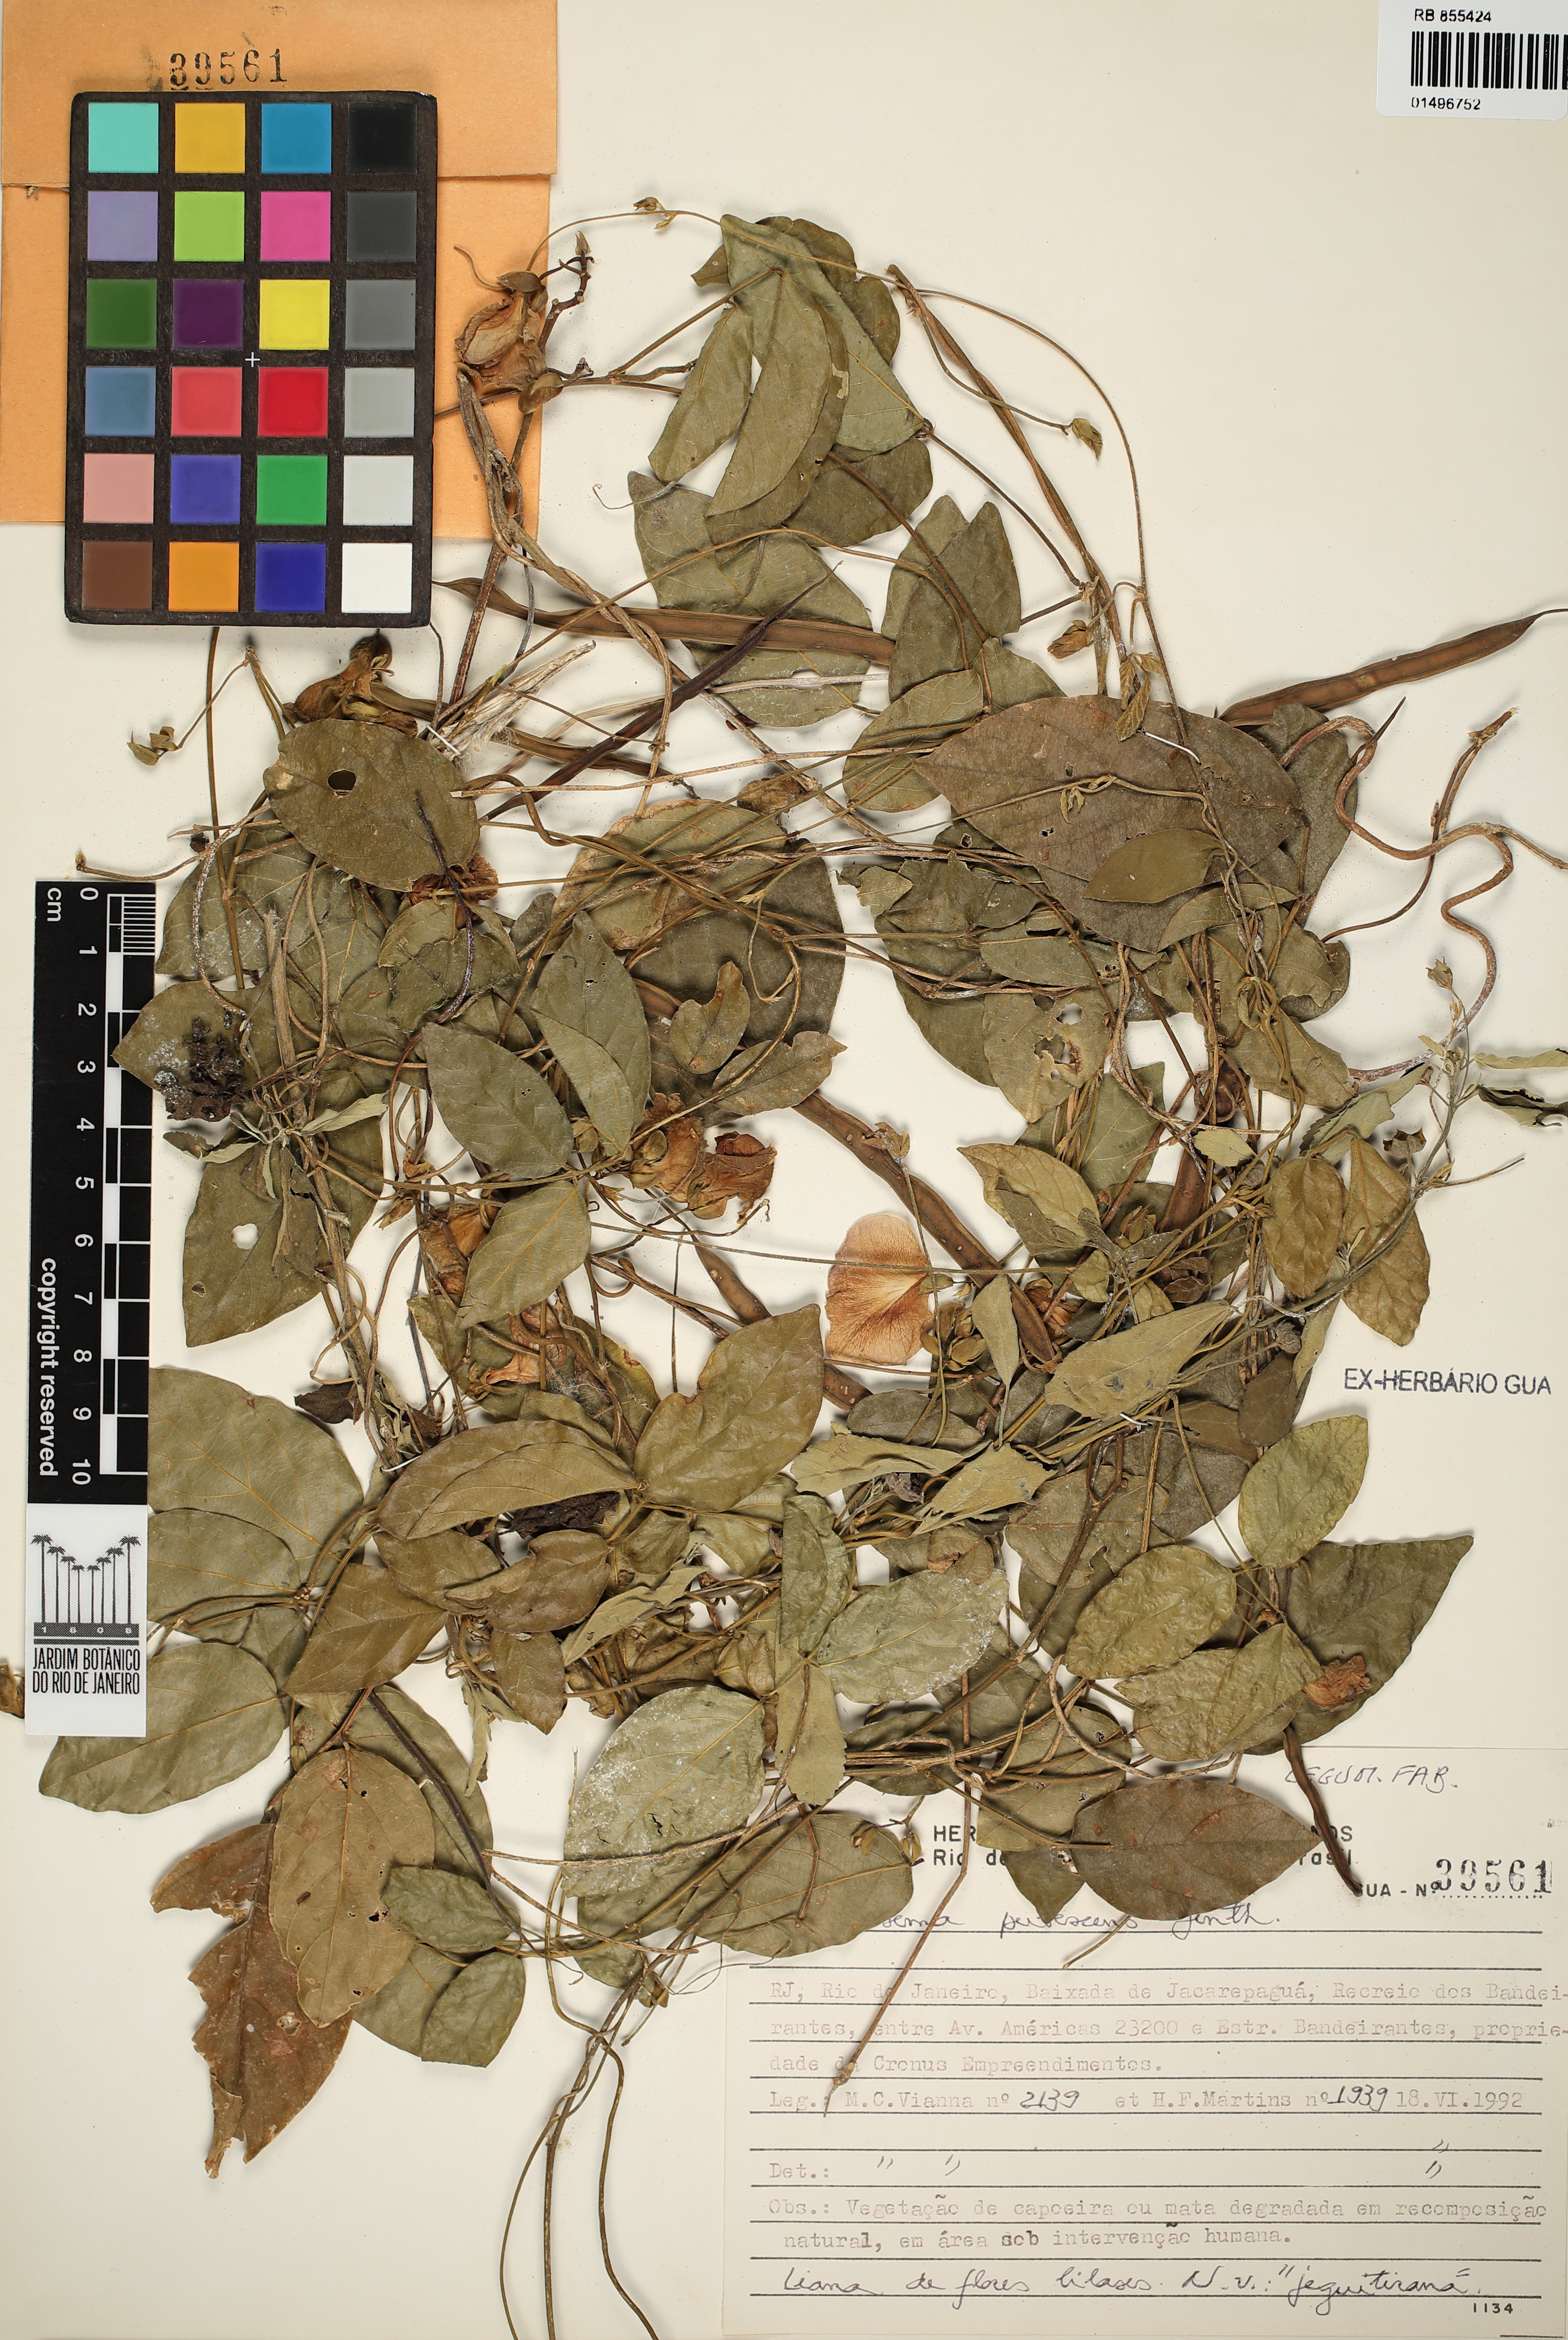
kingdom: Plantae
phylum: Tracheophyta
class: Magnoliopsida
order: Fabales
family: Fabaceae
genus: Centrosema
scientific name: Centrosema pubescens
